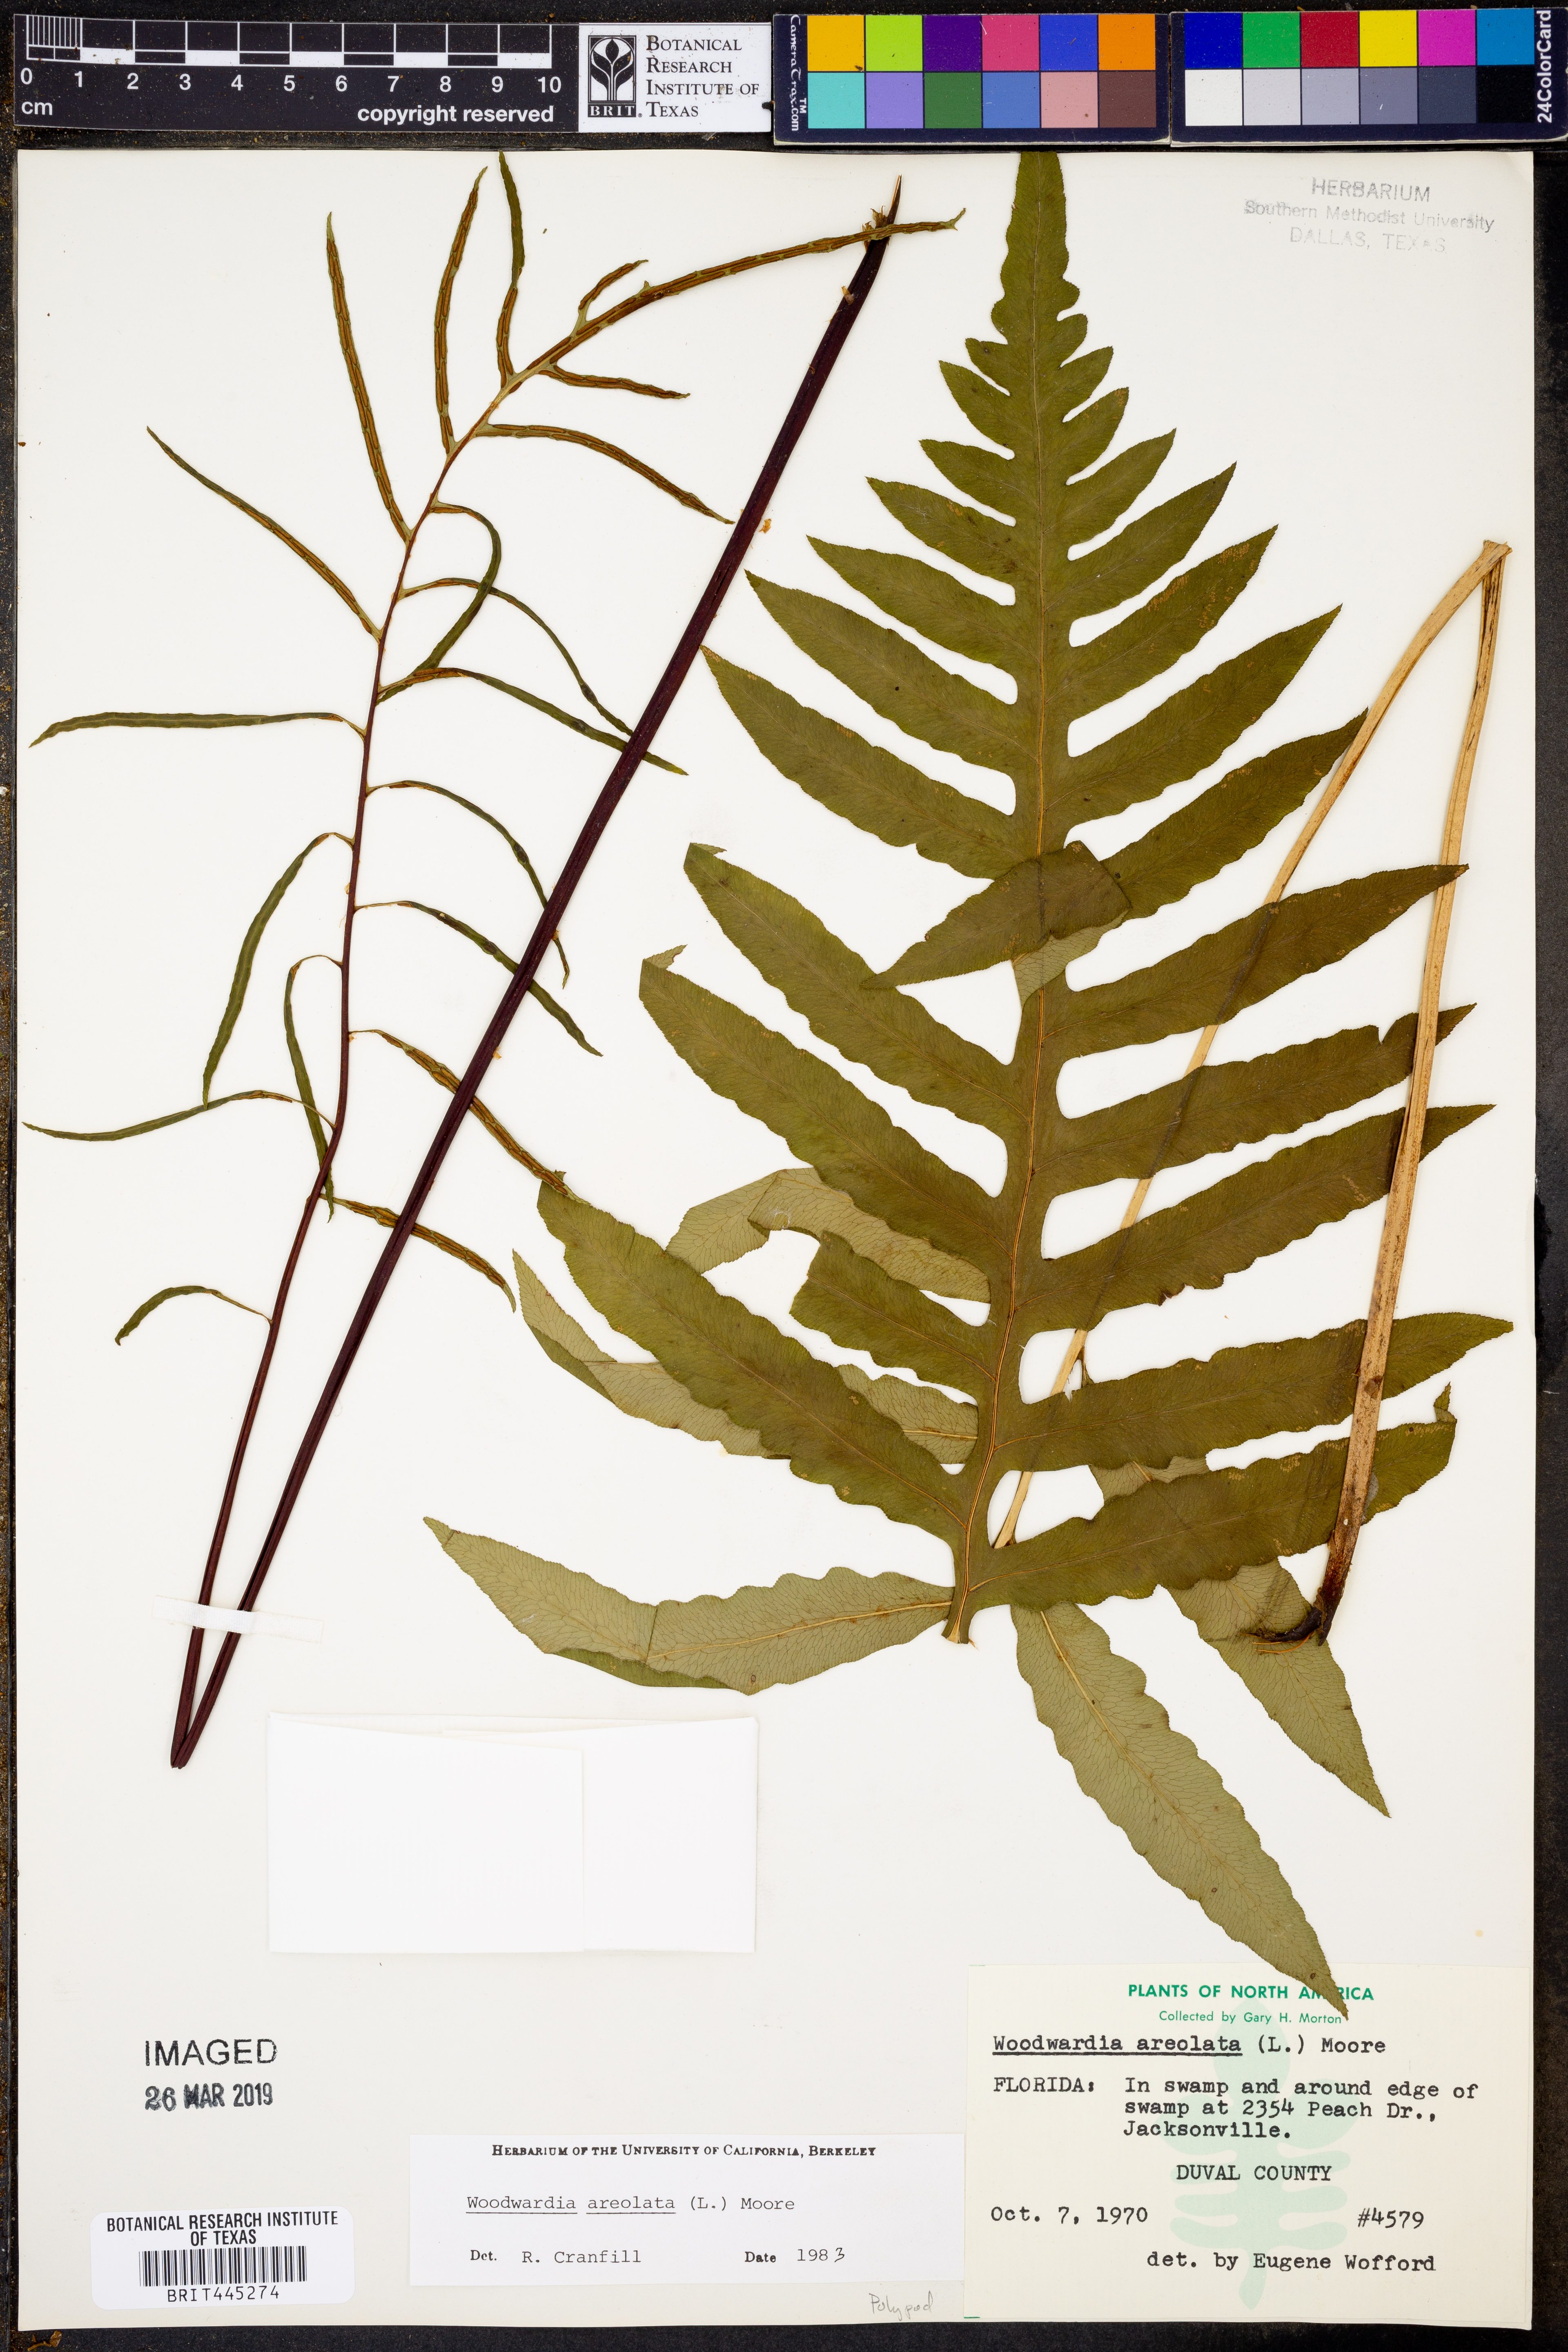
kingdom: Plantae
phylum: Tracheophyta
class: Polypodiopsida
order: Polypodiales
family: Blechnaceae
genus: Lorinseria
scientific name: Lorinseria areolata
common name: Dwarf chain fern
